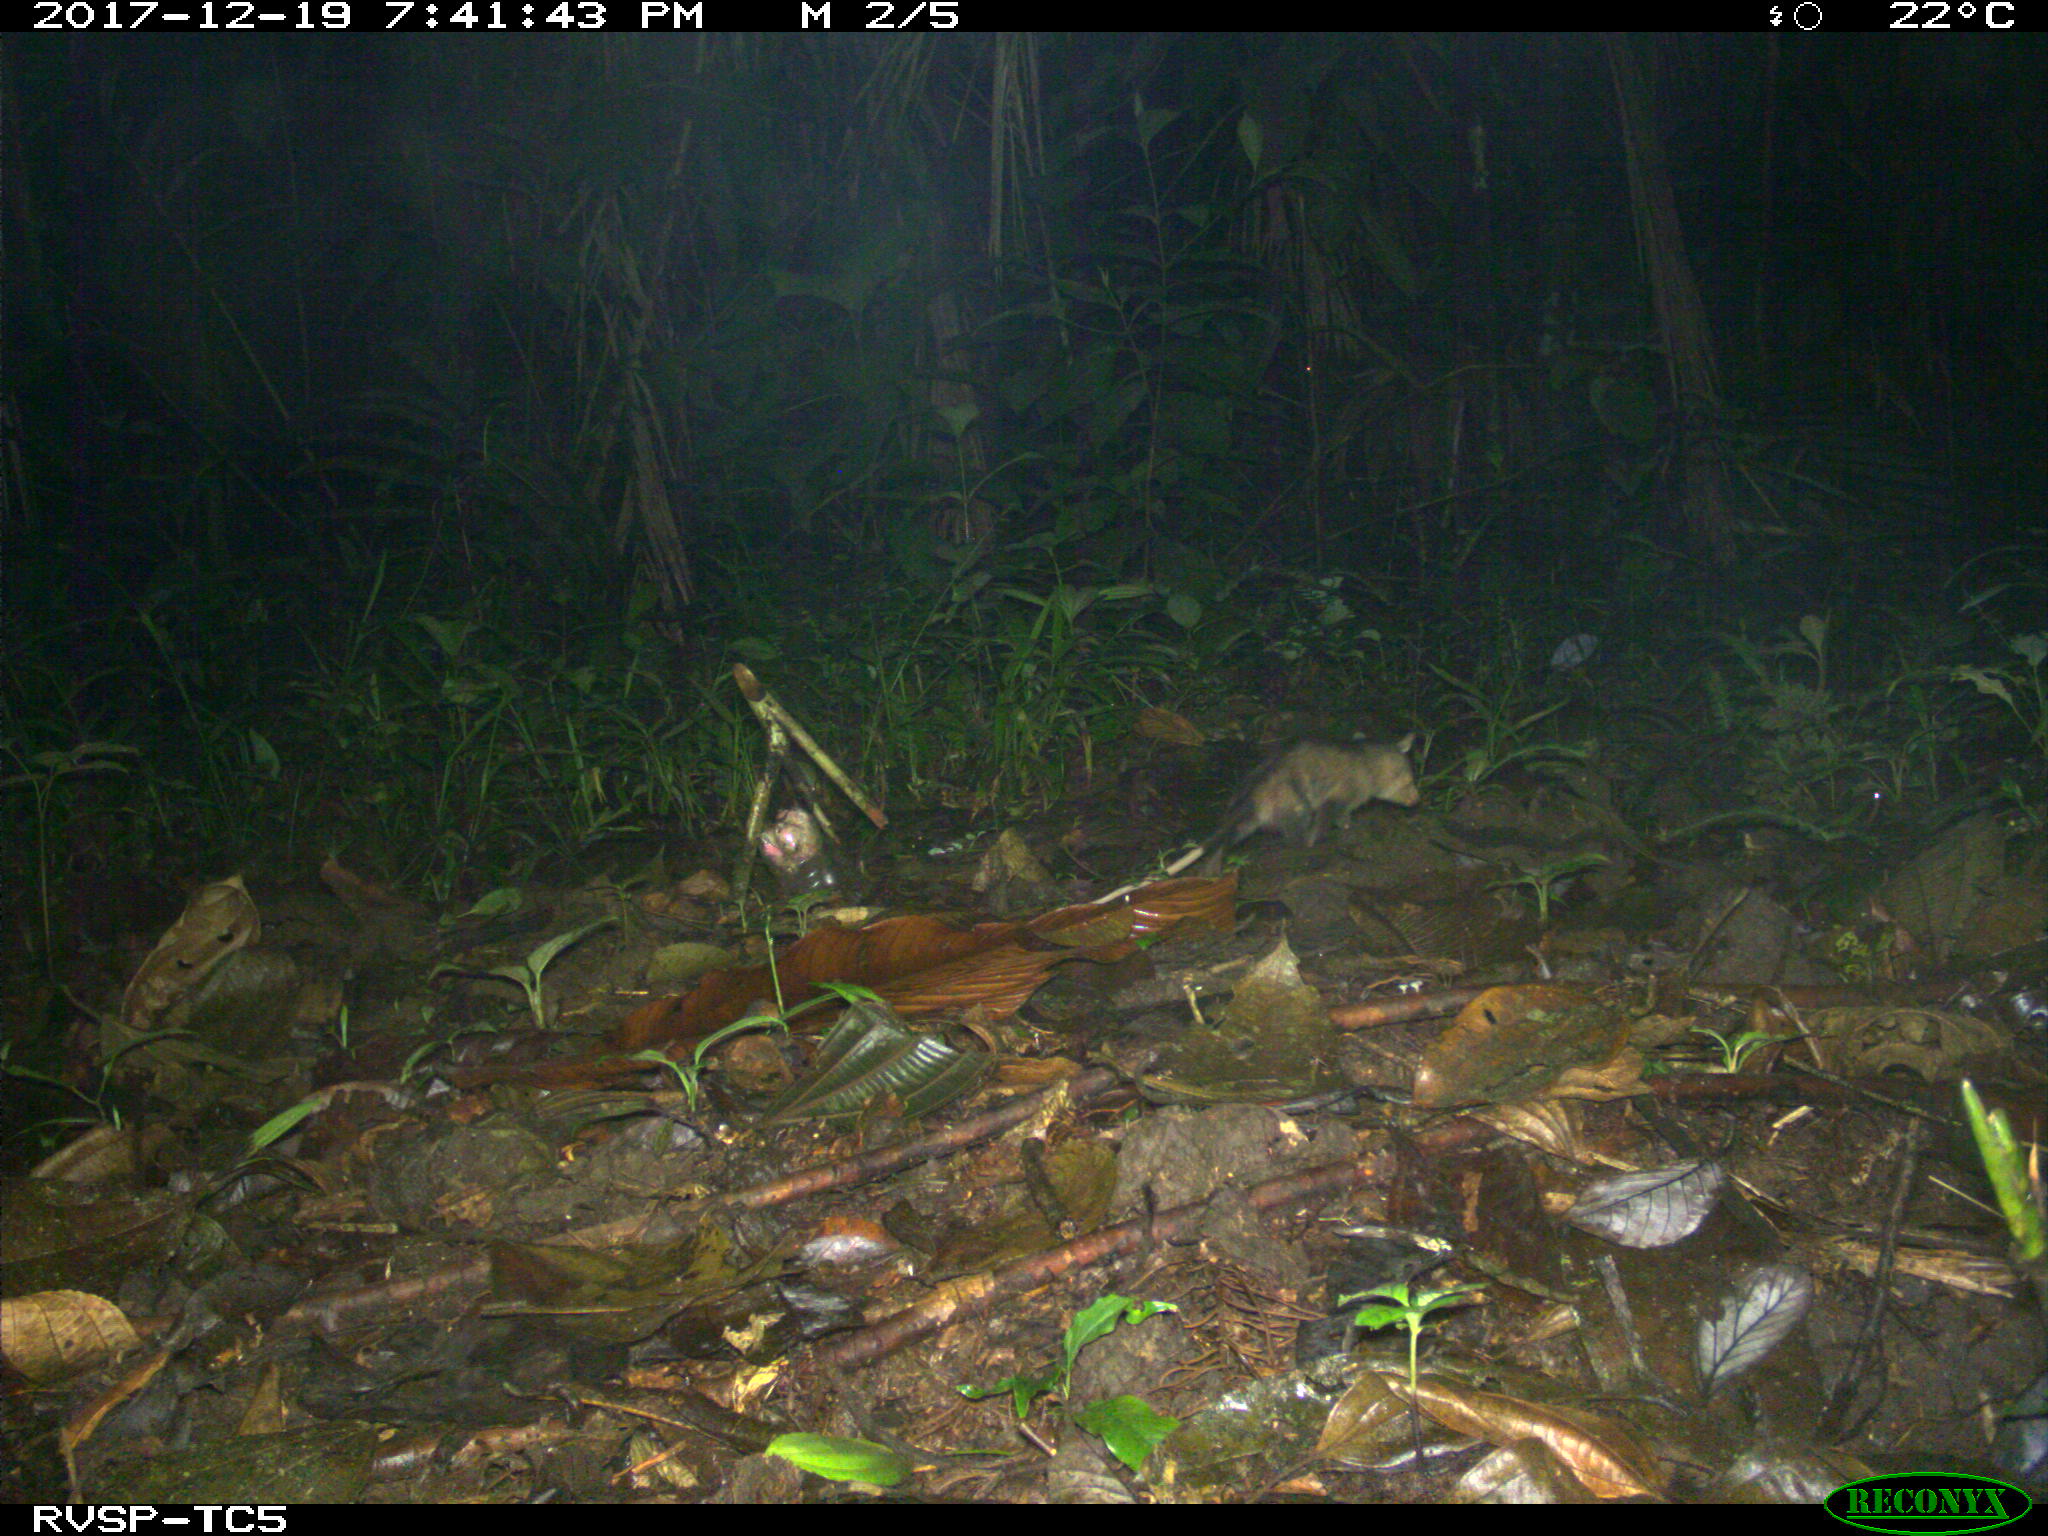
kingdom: Animalia
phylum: Chordata
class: Mammalia
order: Didelphimorphia
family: Didelphidae
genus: Didelphis
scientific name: Didelphis marsupialis
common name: Common opossum
